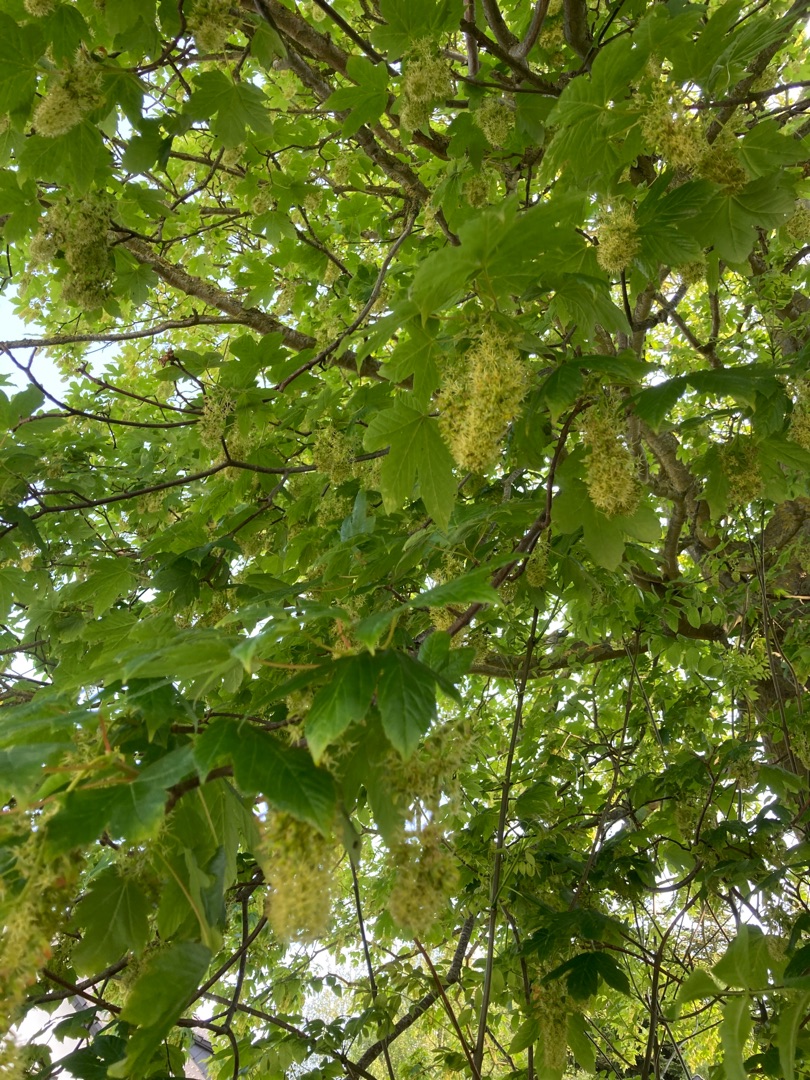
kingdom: Plantae
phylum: Tracheophyta
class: Magnoliopsida
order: Sapindales
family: Sapindaceae
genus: Acer
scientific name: Acer pseudoplatanus
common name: Ahorn
